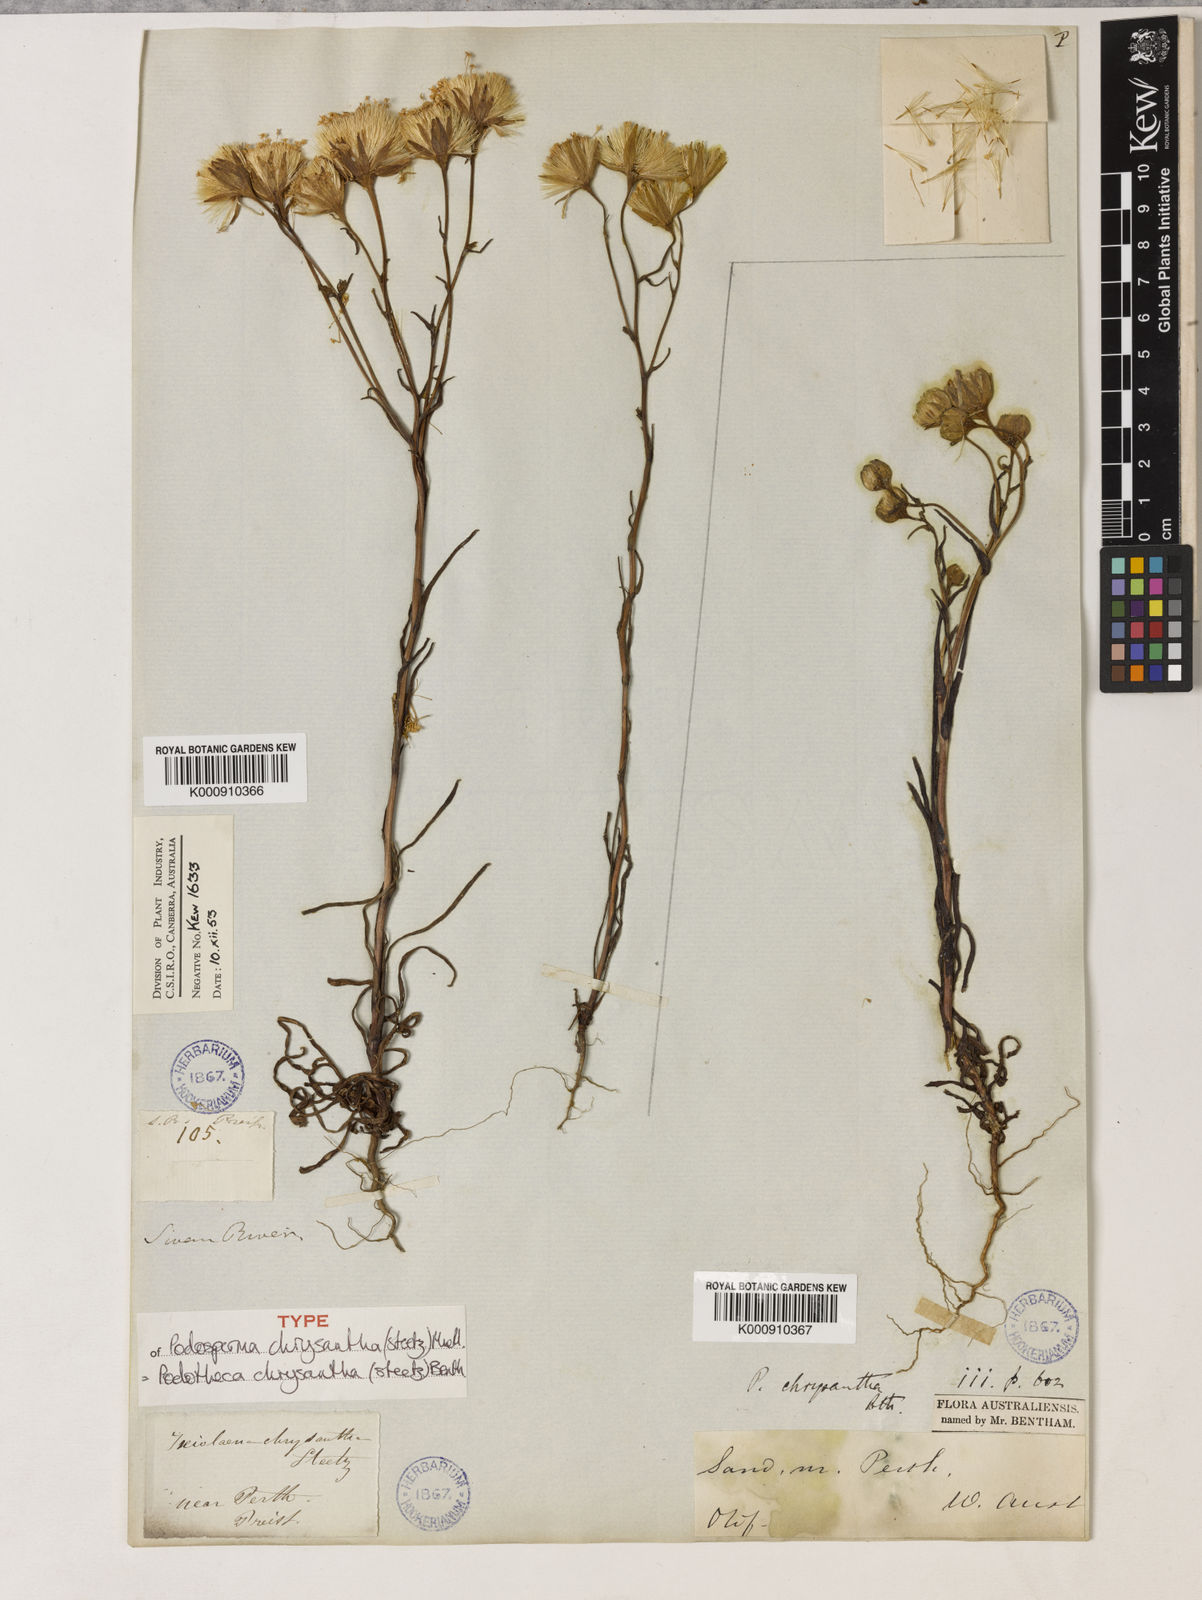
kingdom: Plantae
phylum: Tracheophyta
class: Magnoliopsida
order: Asterales
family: Asteraceae
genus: Podotheca
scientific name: Podotheca chrysantha
